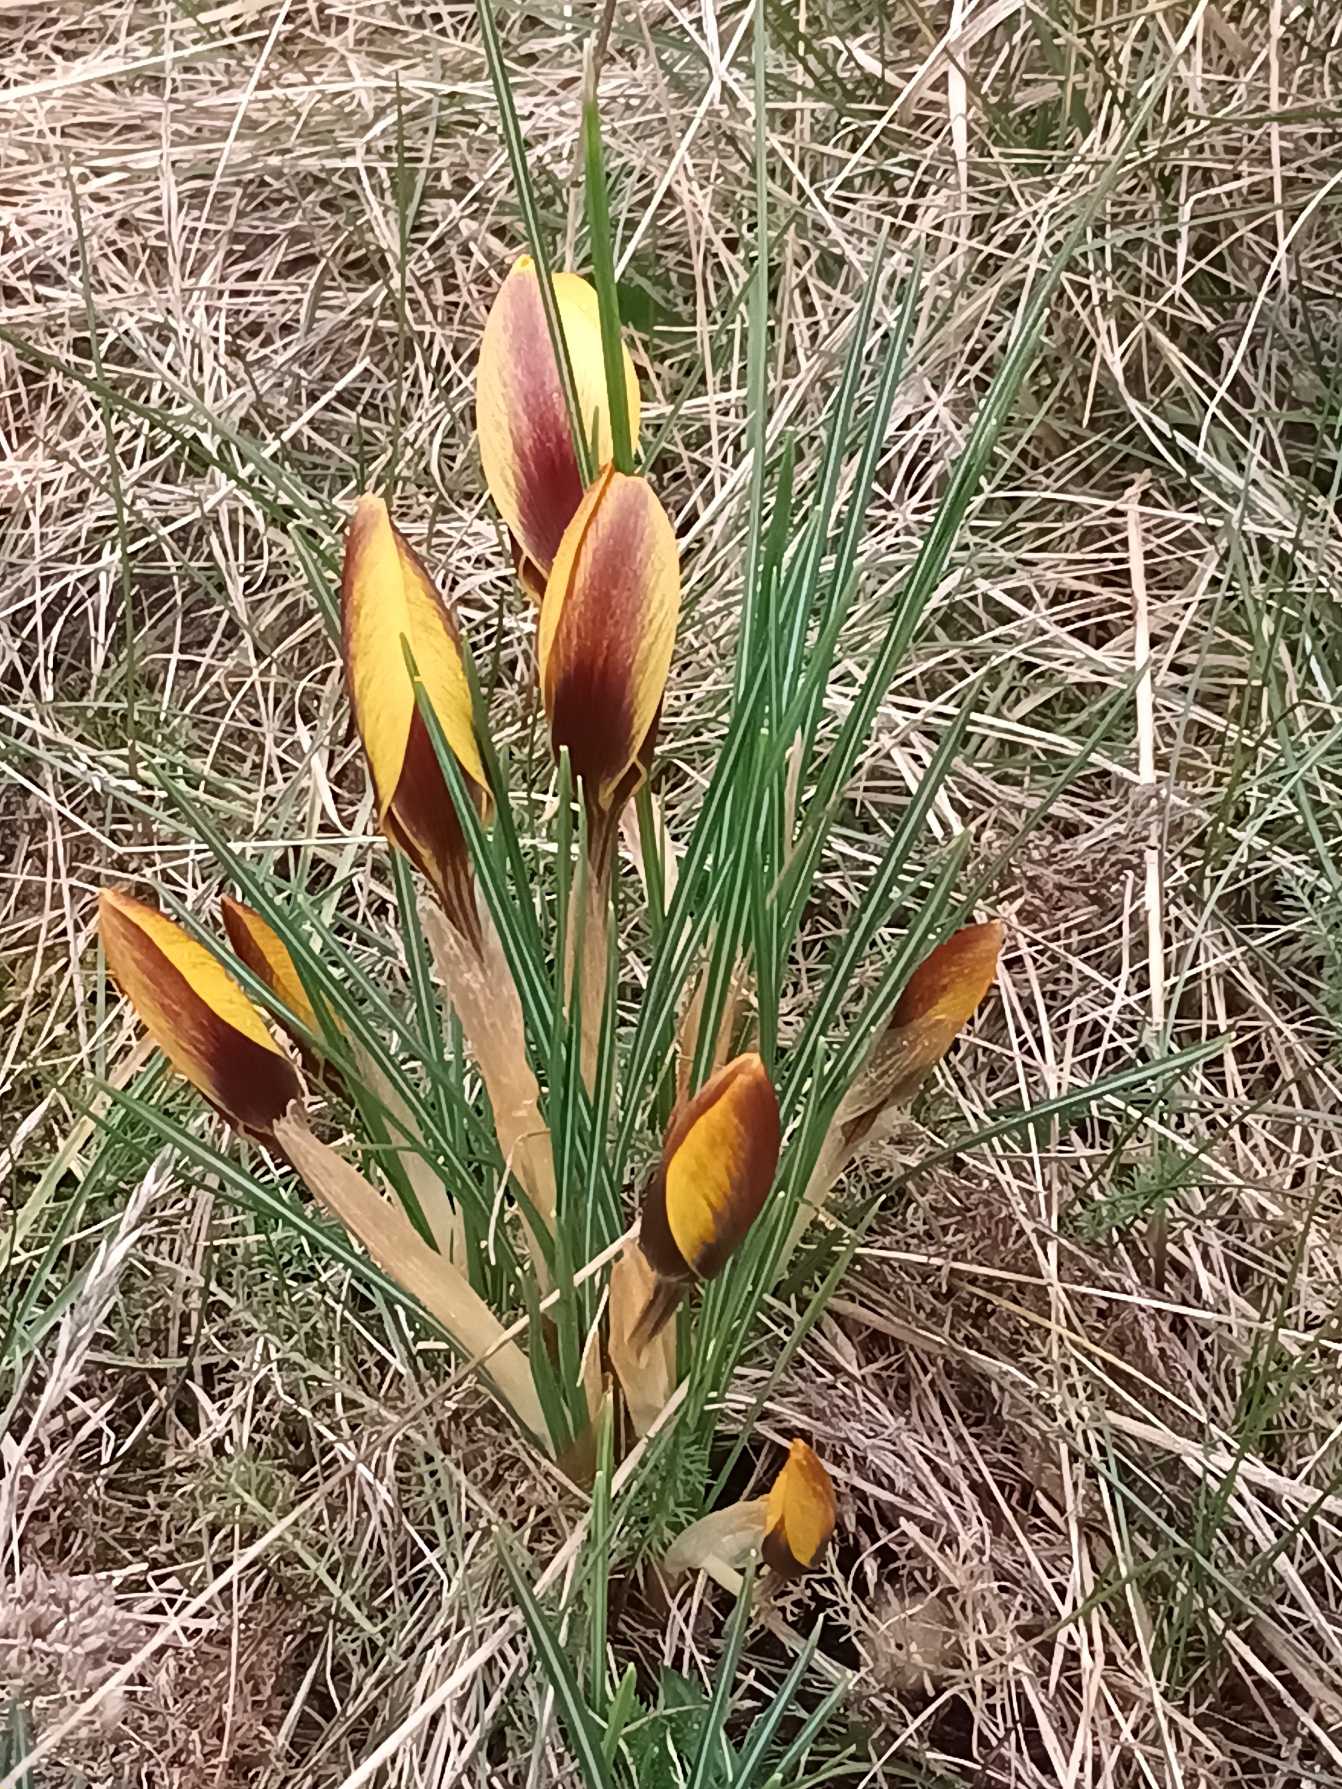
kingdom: Plantae
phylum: Tracheophyta
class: Liliopsida
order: Asparagales
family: Iridaceae
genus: Crocus
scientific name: Crocus angustifolius
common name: Bånd-krokus
